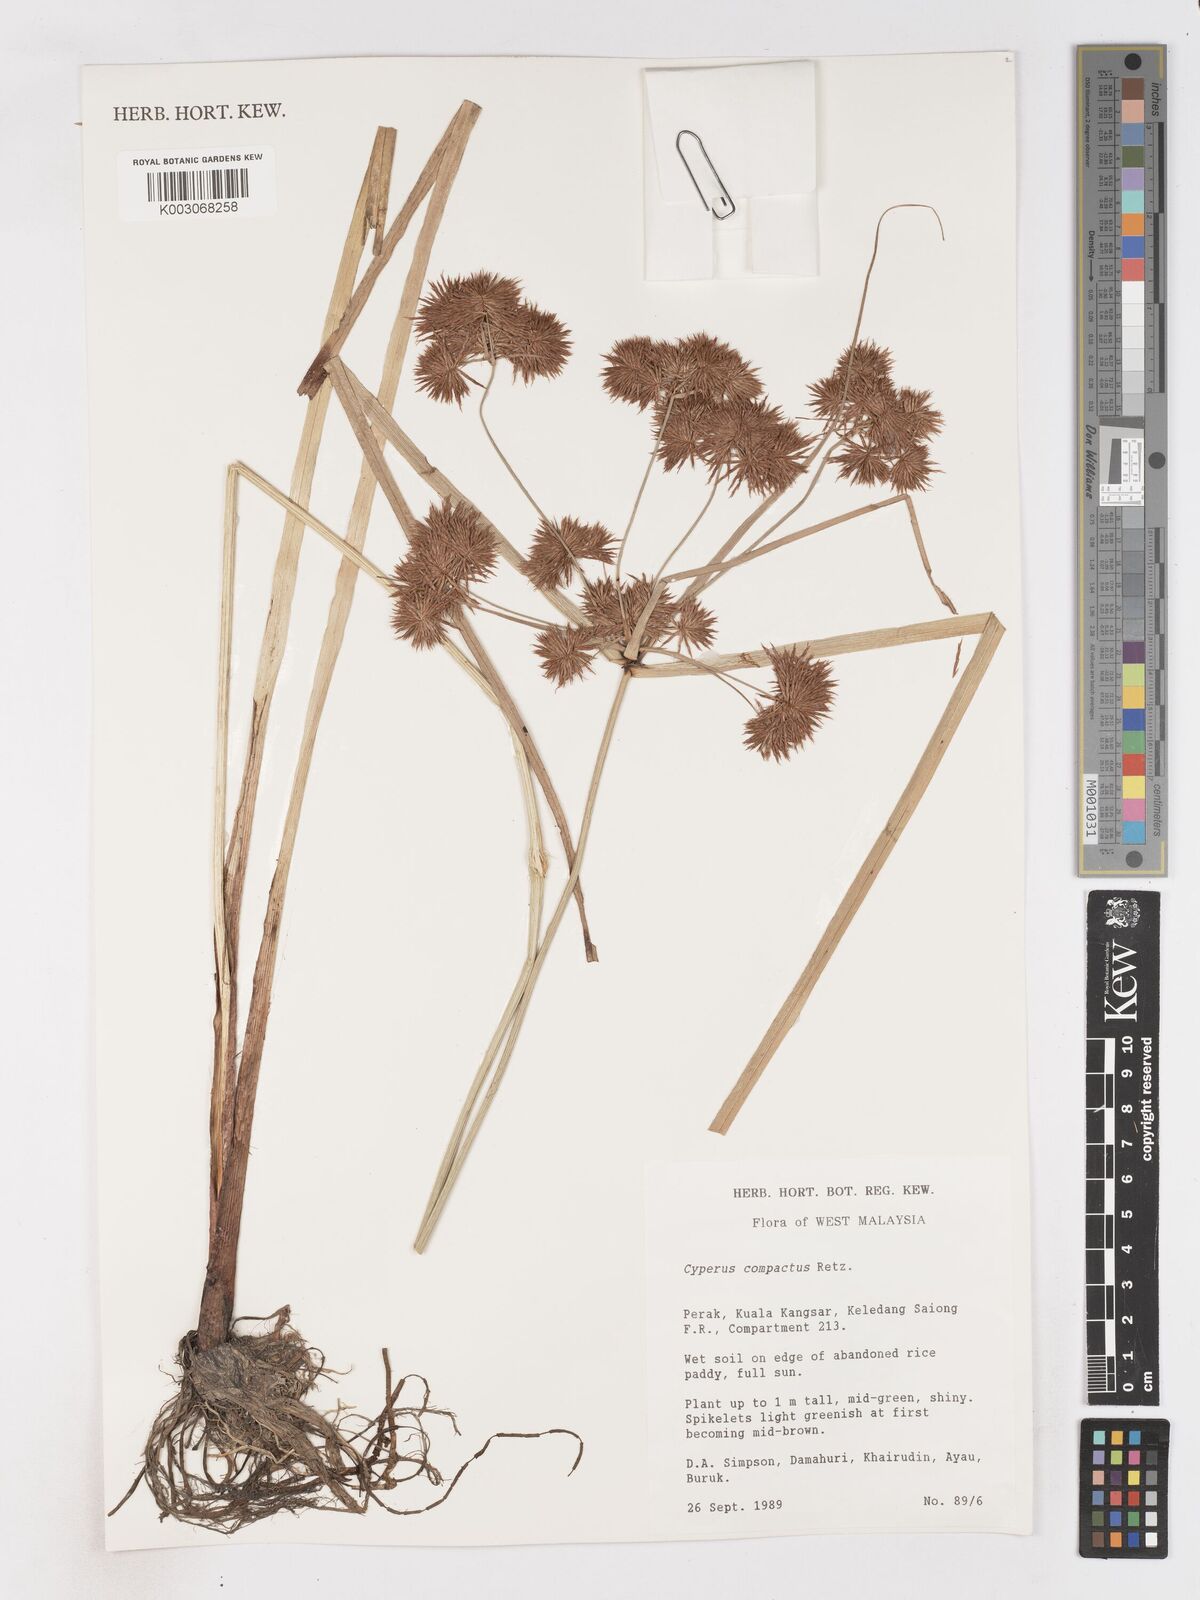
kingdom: Plantae
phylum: Tracheophyta
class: Liliopsida
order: Poales
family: Cyperaceae
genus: Cyperus
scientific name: Cyperus compactus
